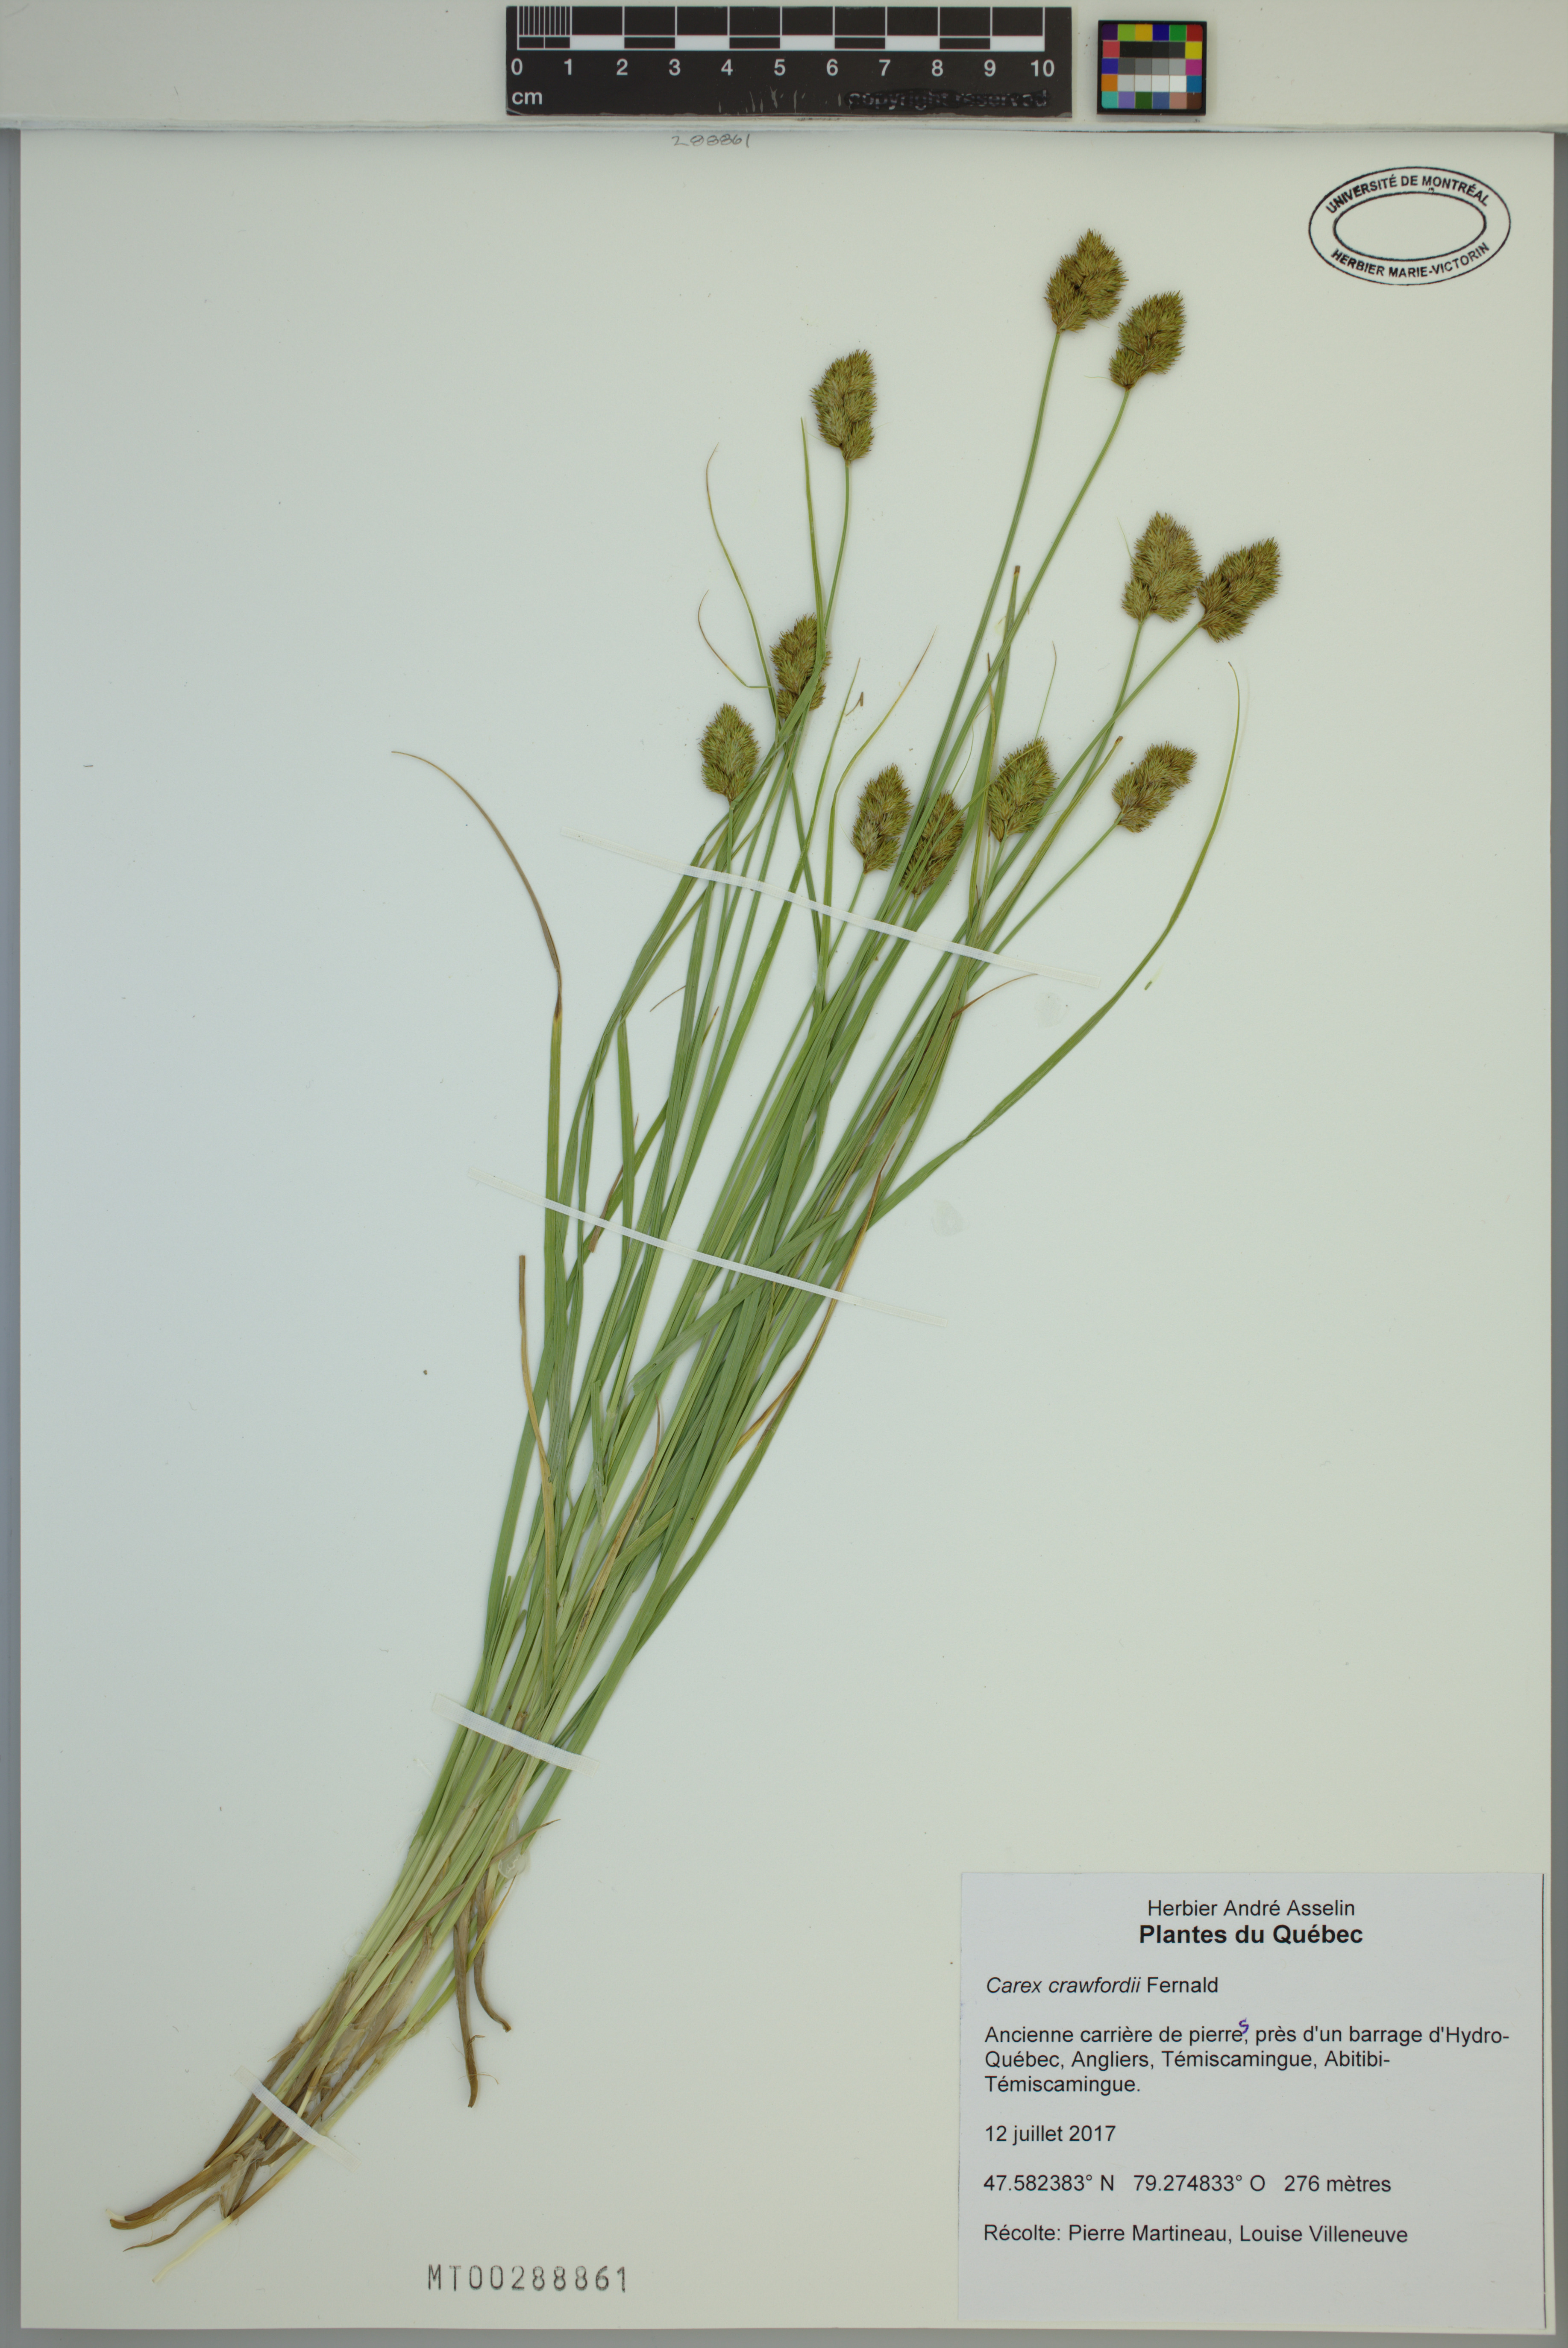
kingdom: Plantae
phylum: Tracheophyta
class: Liliopsida
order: Poales
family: Cyperaceae
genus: Carex
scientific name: Carex crawfordii
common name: Crawford's sedge
